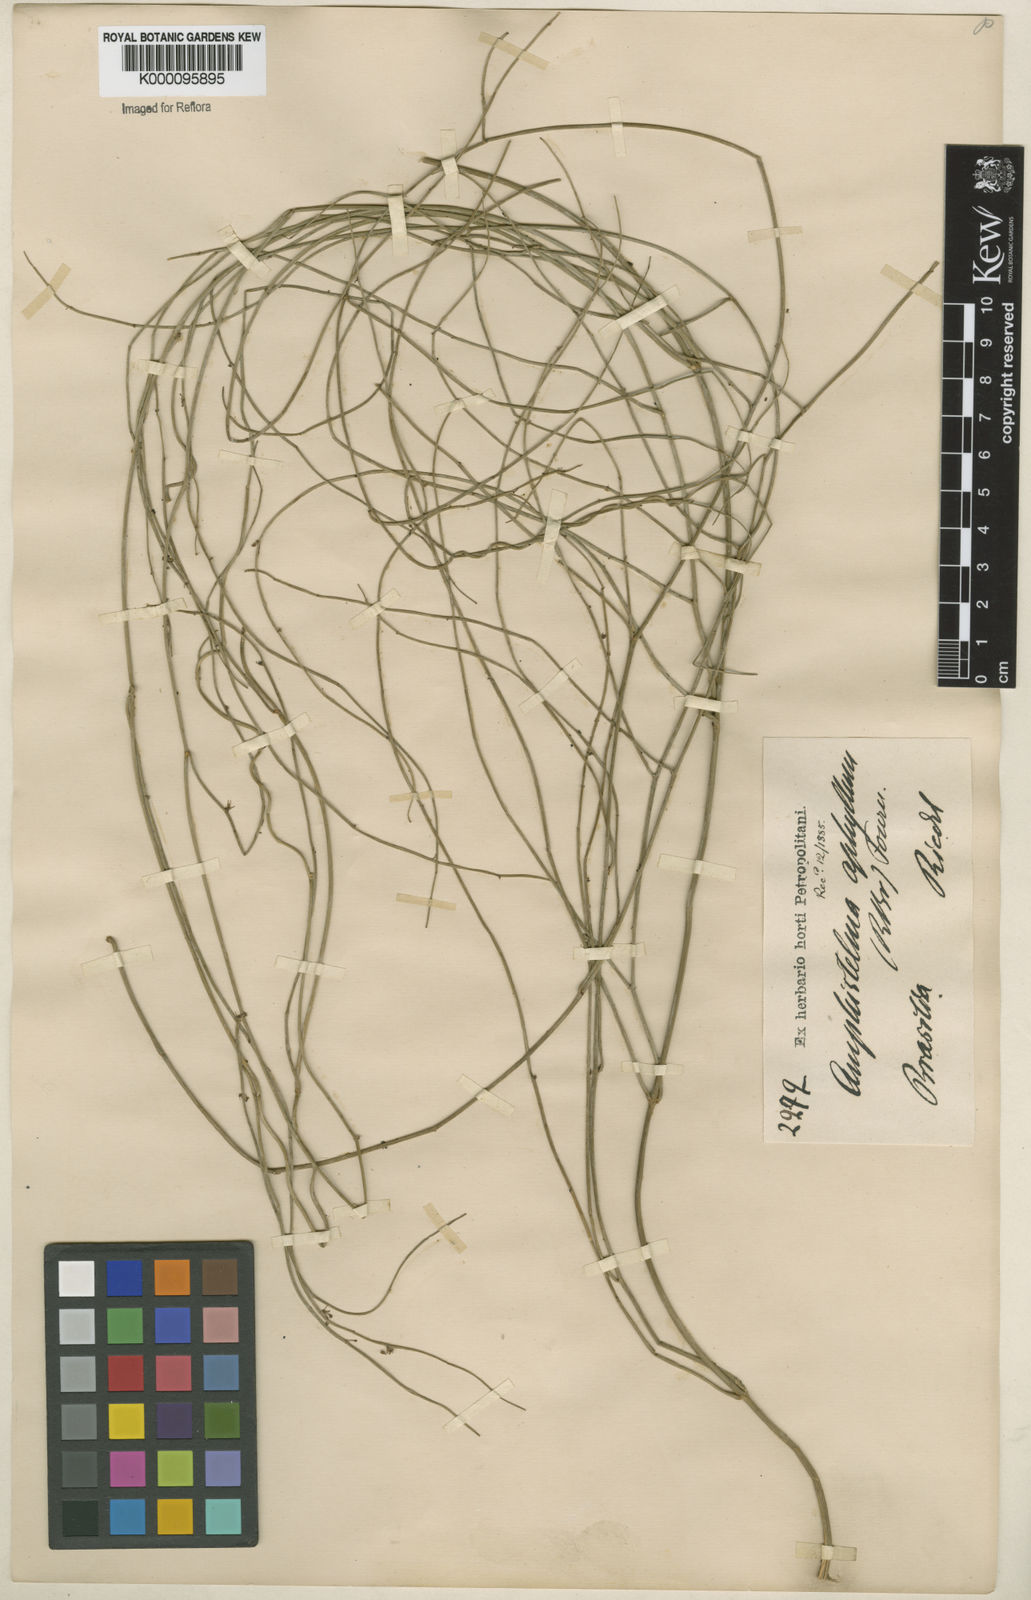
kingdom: Plantae
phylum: Tracheophyta
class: Magnoliopsida
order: Gentianales
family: Apocynaceae
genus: Orthosia
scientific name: Orthosia scoparia
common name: Leafless swallow-wort
